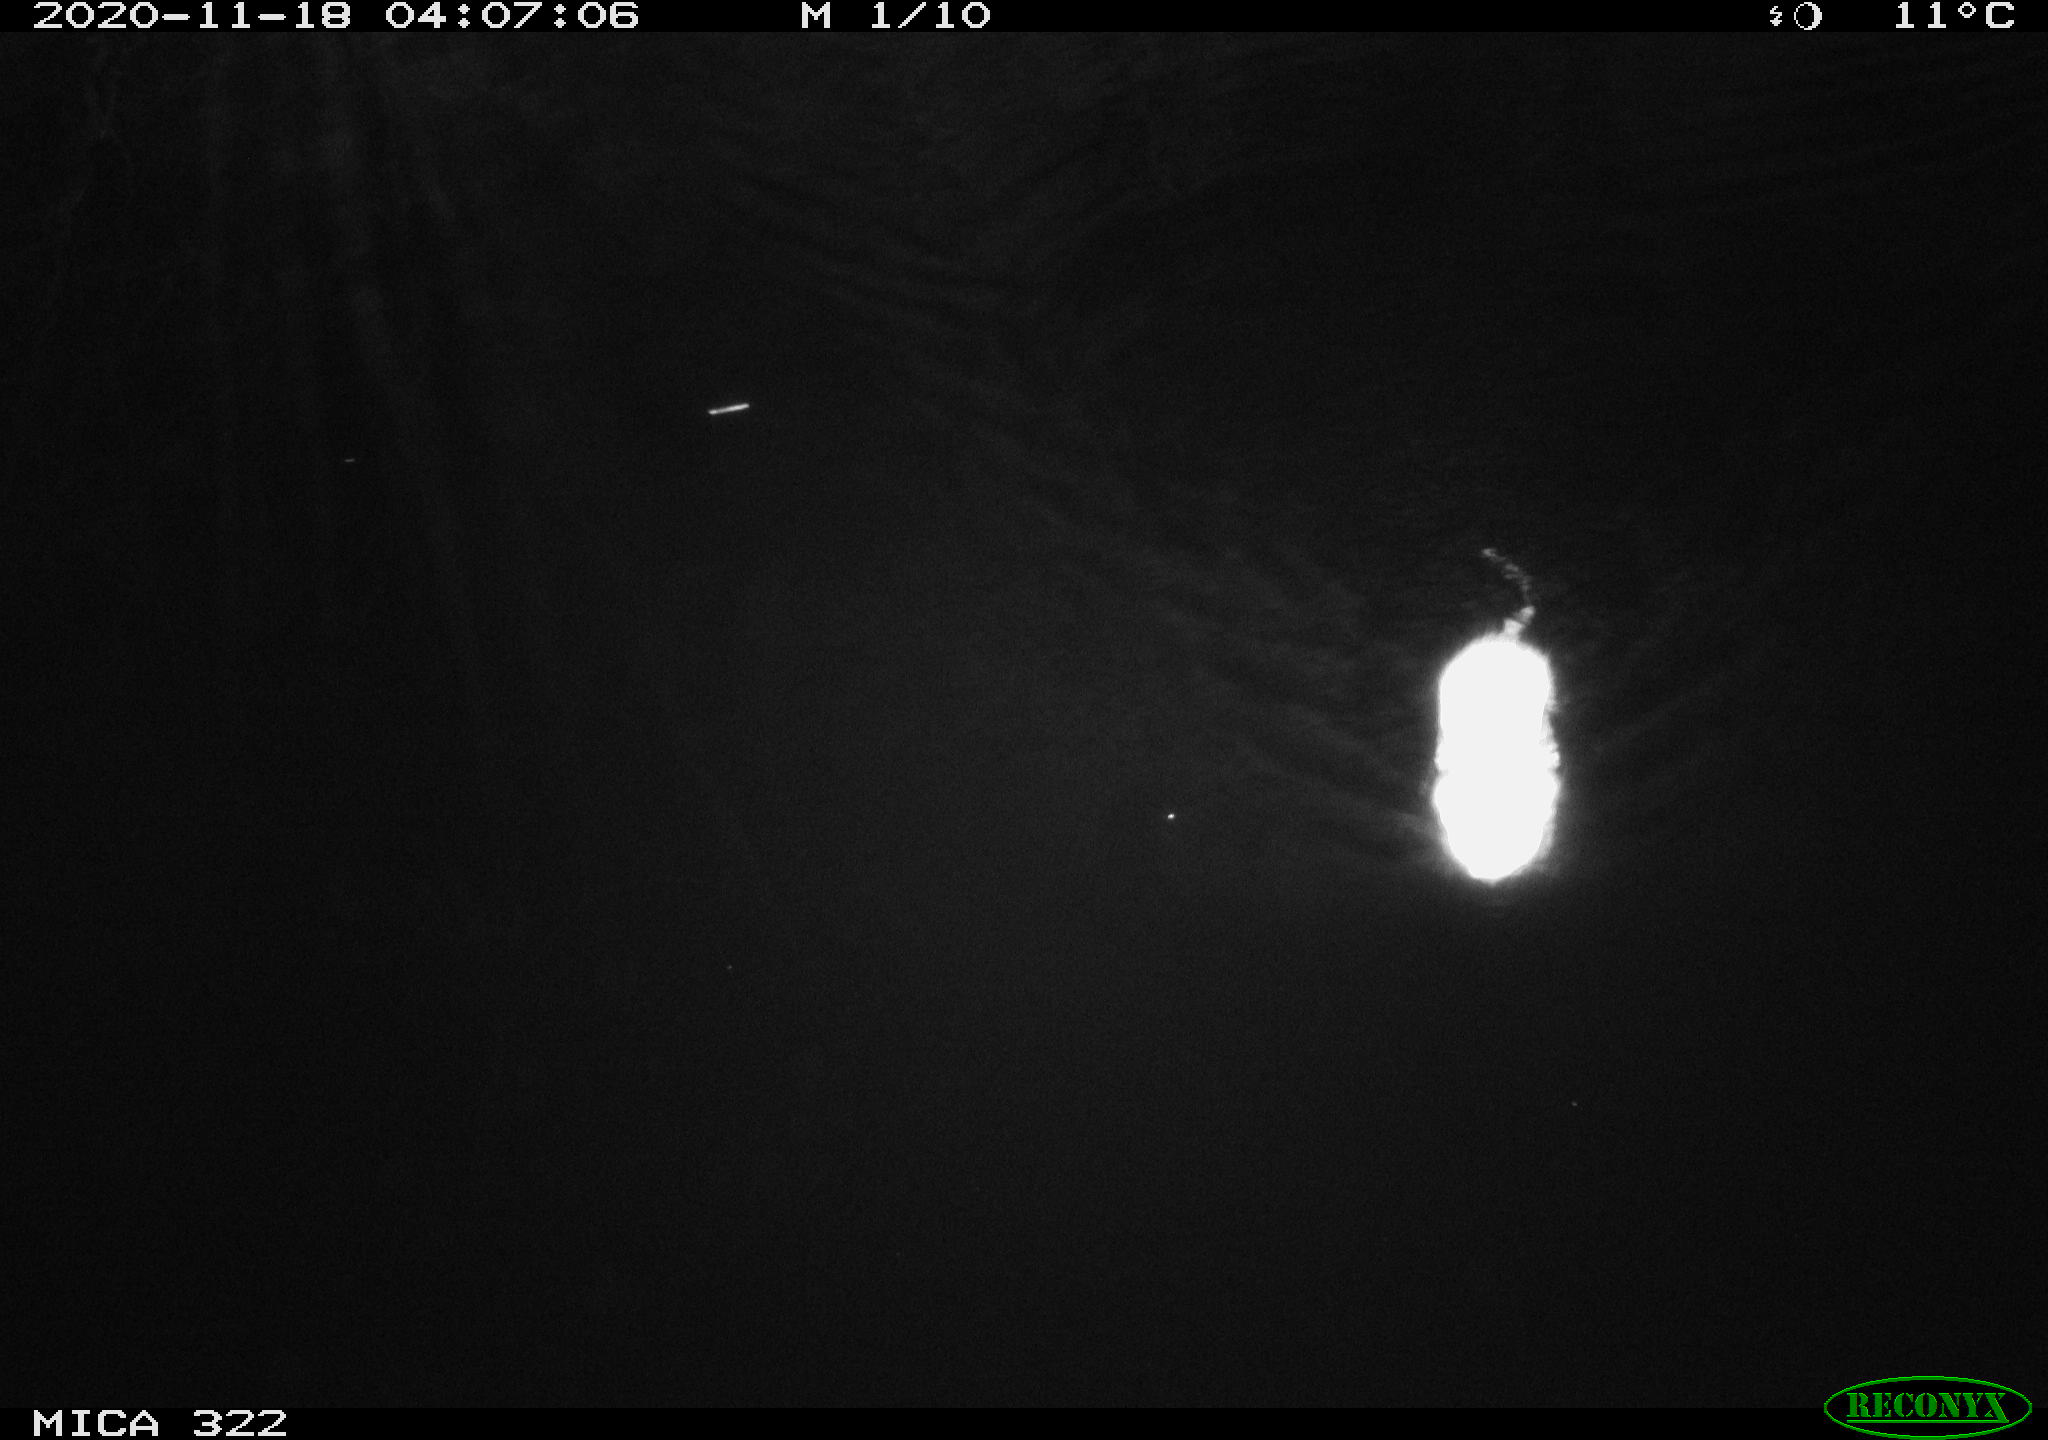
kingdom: Animalia
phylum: Chordata
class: Mammalia
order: Rodentia
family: Cricetidae
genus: Ondatra
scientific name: Ondatra zibethicus
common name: Muskrat
